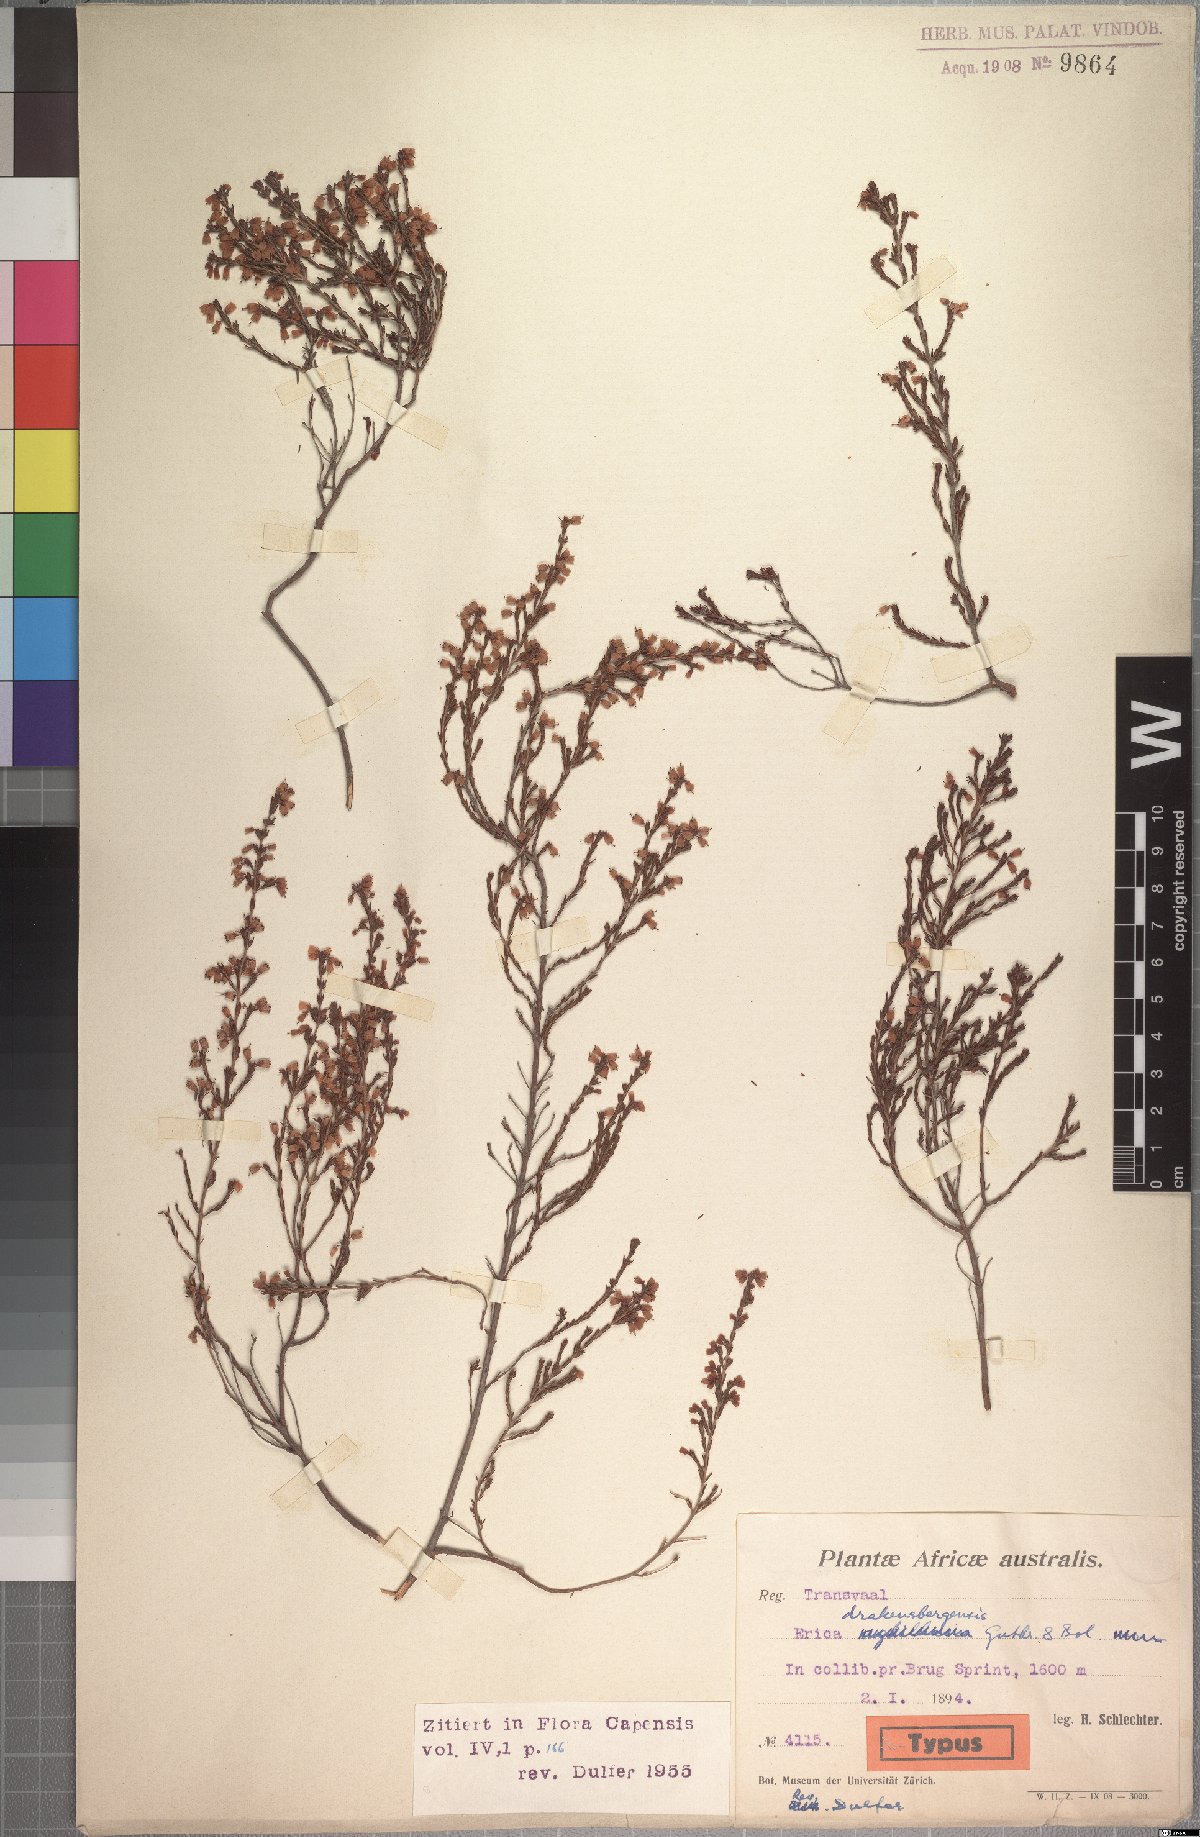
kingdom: Plantae
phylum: Tracheophyta
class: Magnoliopsida
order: Ericales
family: Ericaceae
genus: Erica
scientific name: Erica drakensbergensis
